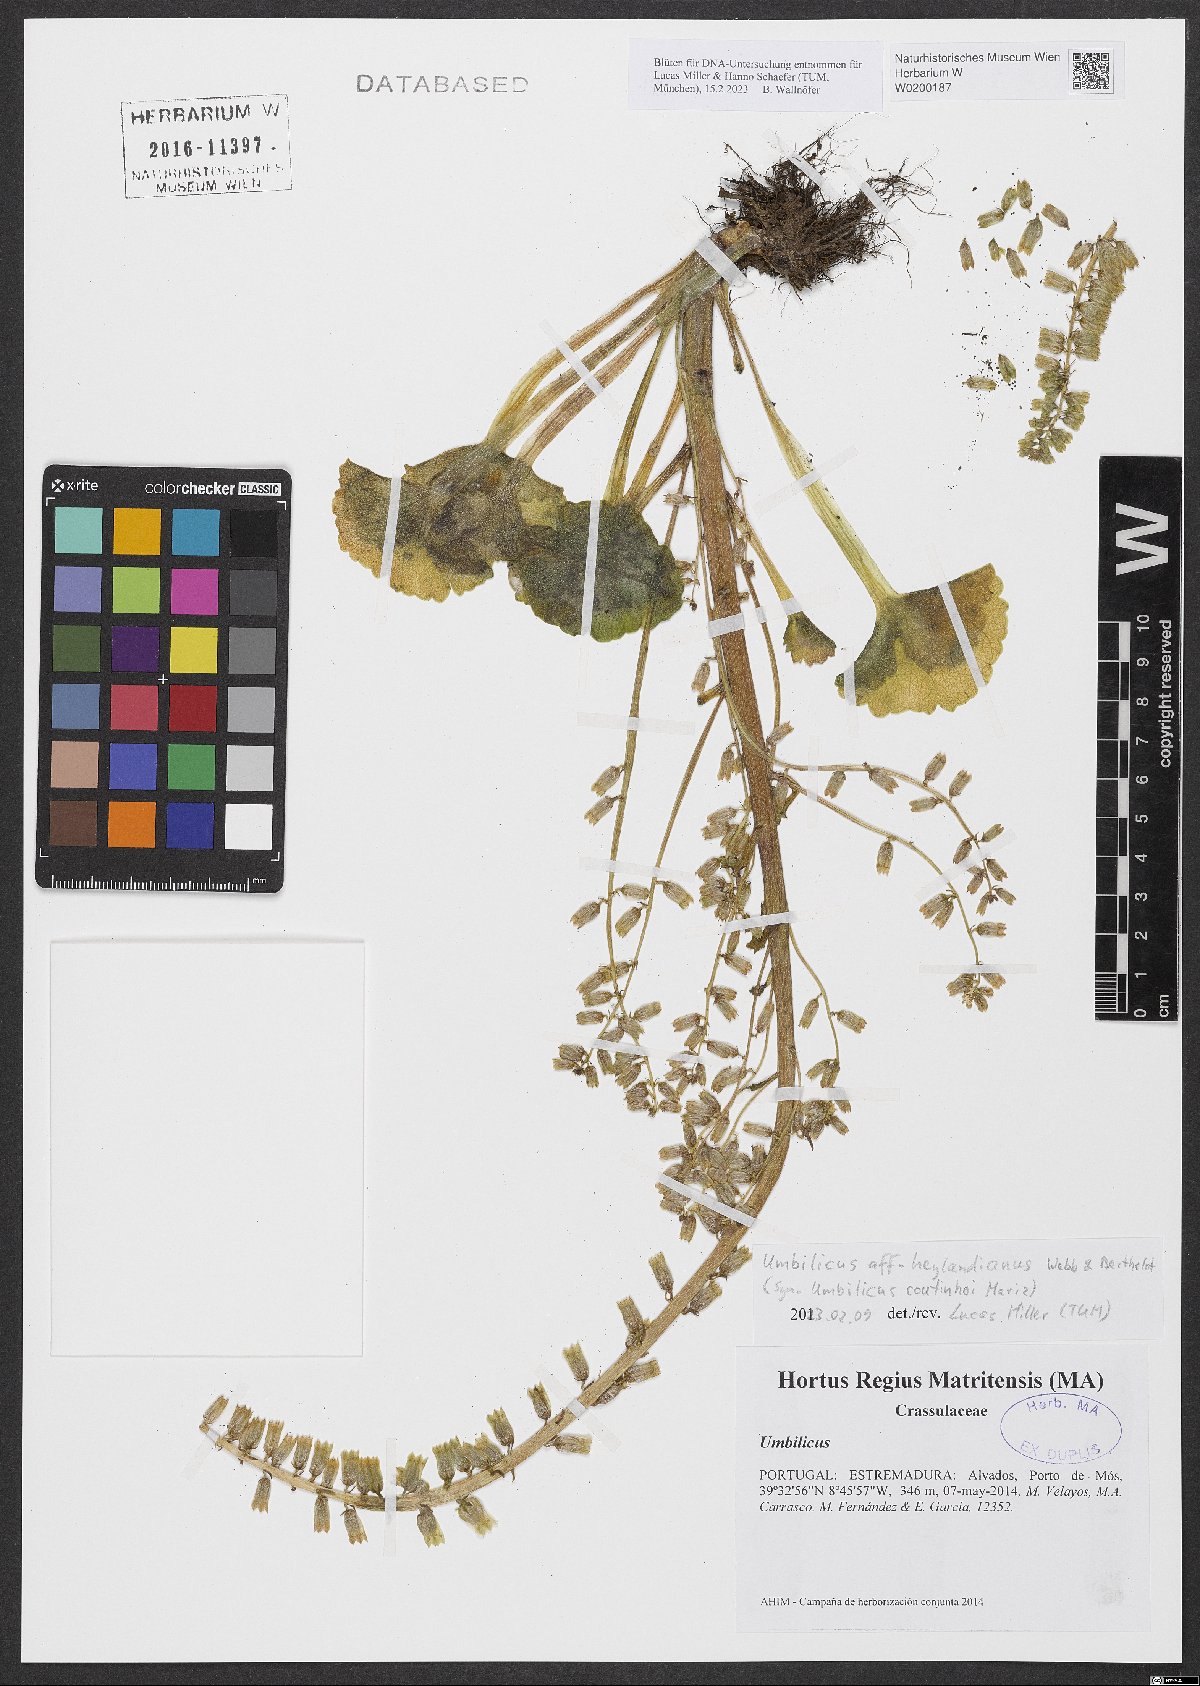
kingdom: Plantae
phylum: Tracheophyta
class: Magnoliopsida
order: Saxifragales
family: Crassulaceae
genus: Umbilicus
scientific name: Umbilicus heylandianus
